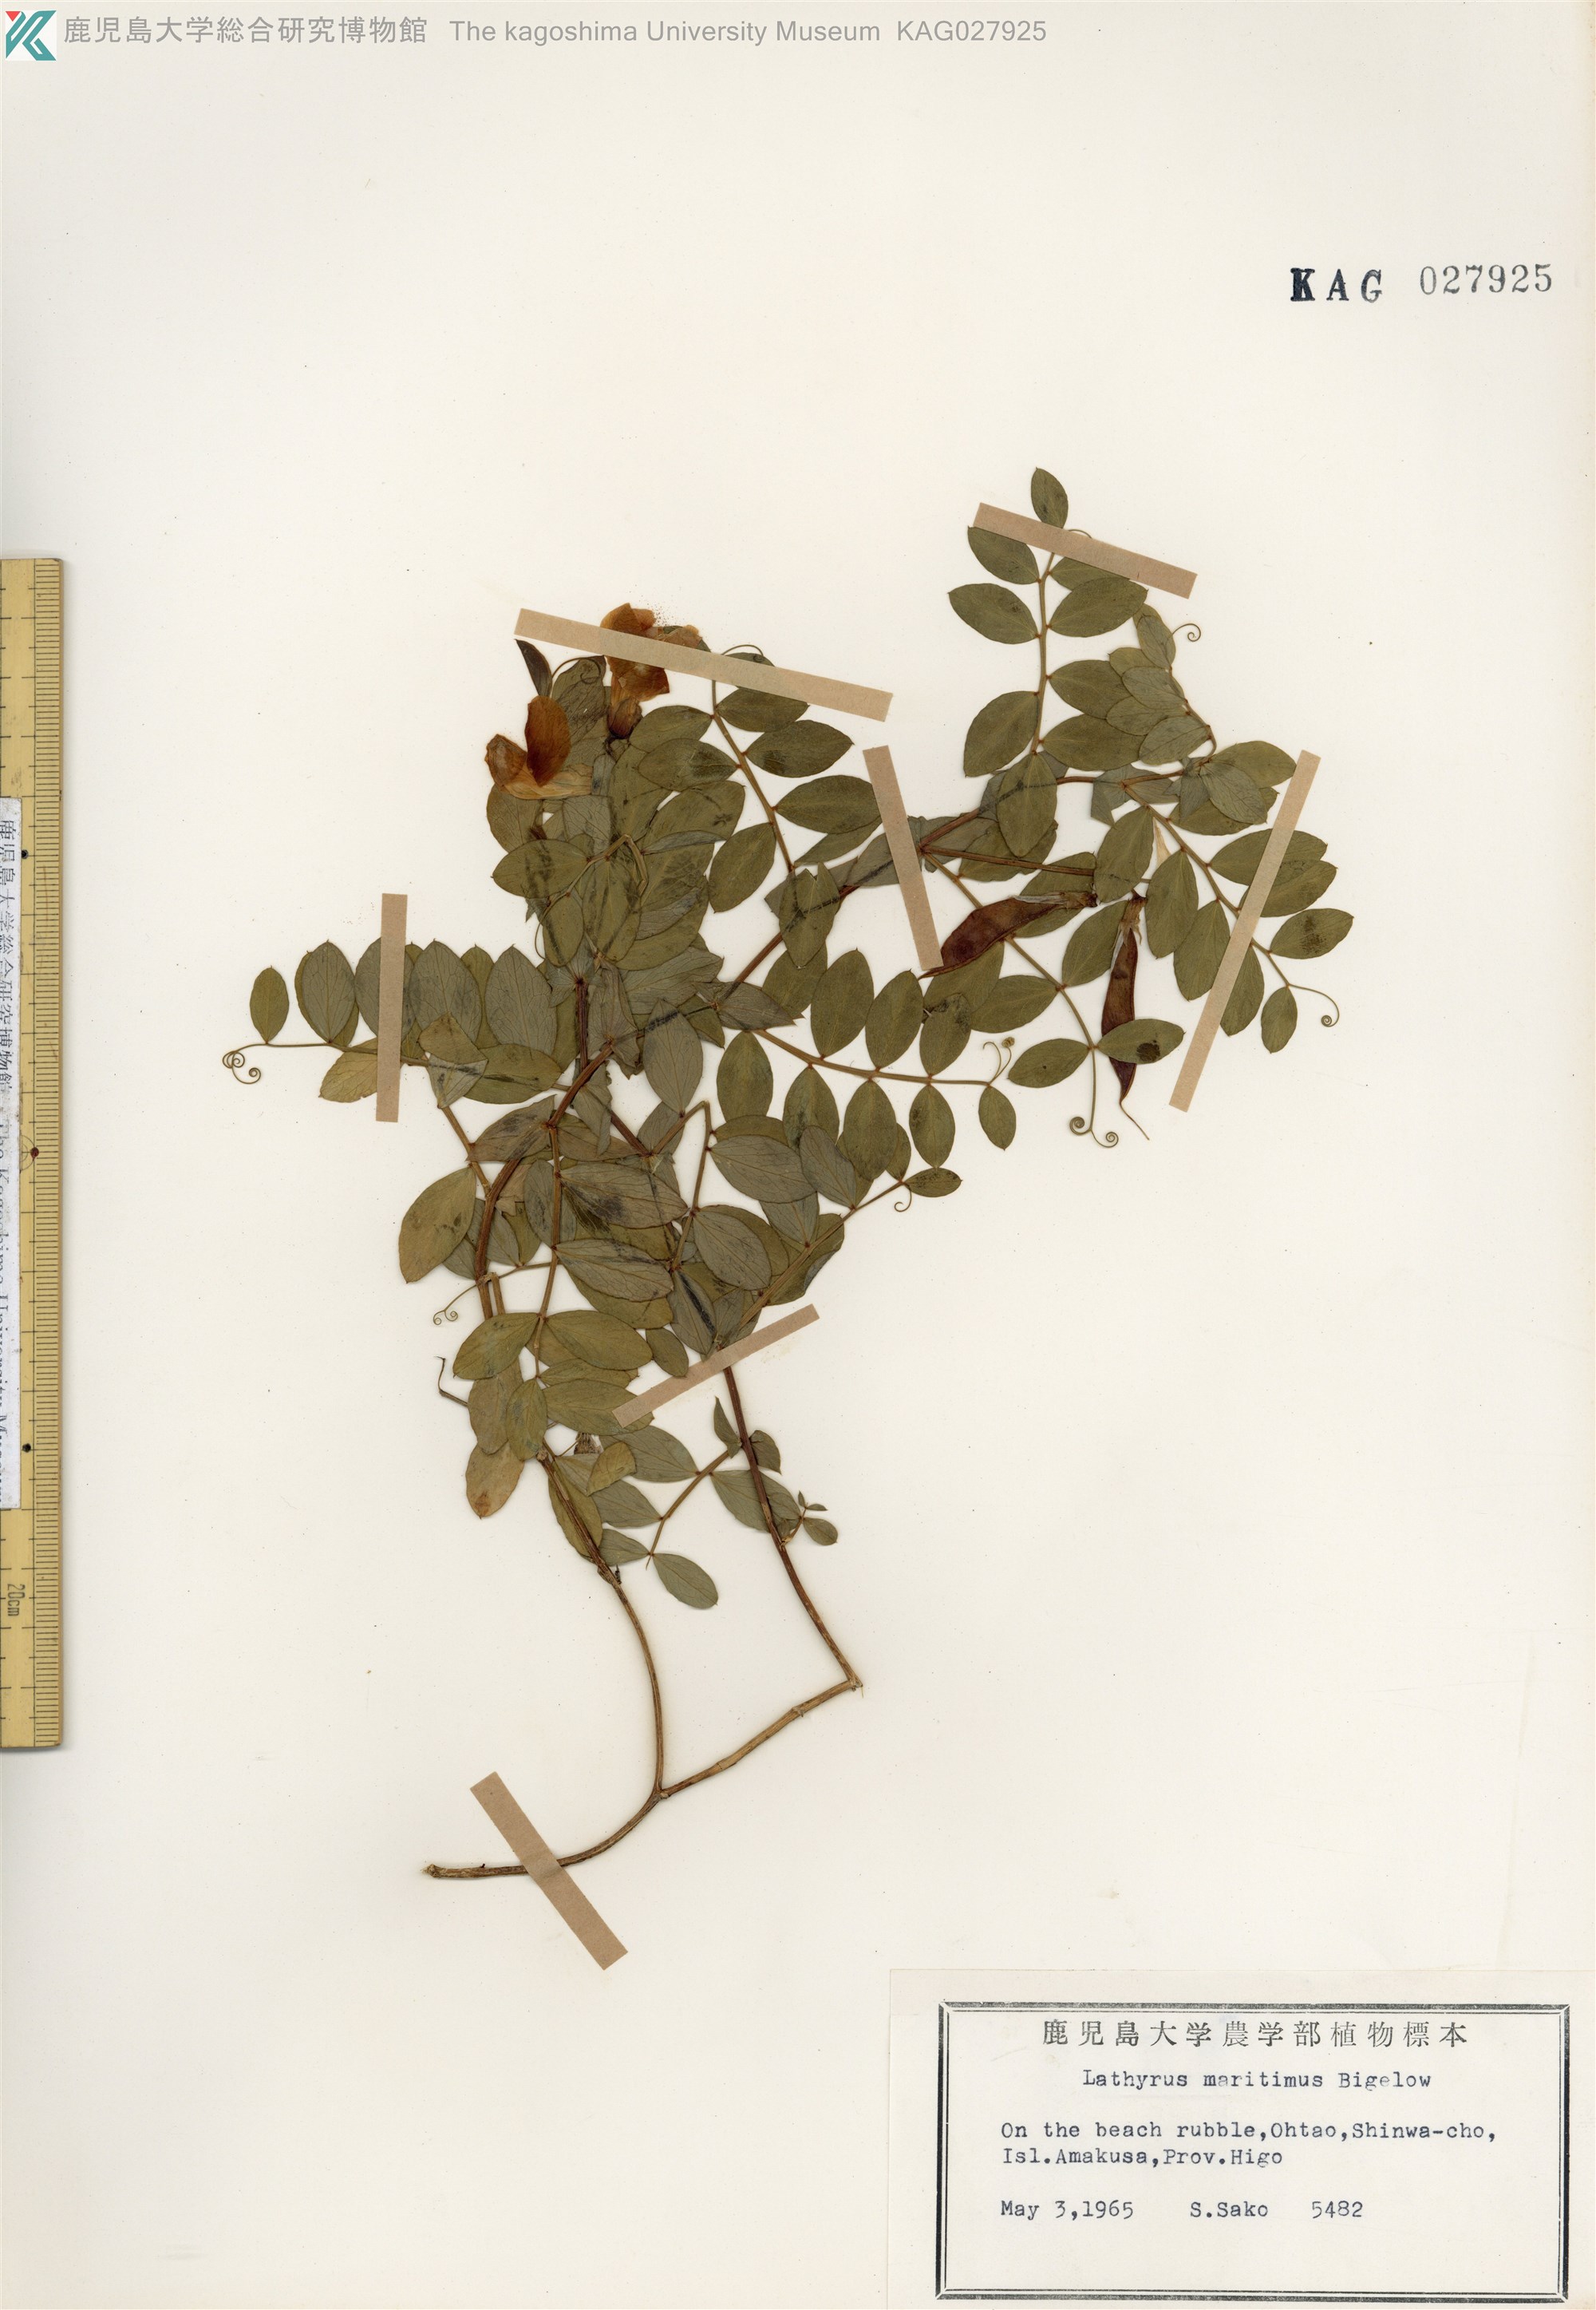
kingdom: Plantae
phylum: Tracheophyta
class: Magnoliopsida
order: Fabales
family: Fabaceae
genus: Lathyrus
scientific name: Lathyrus japonicus
